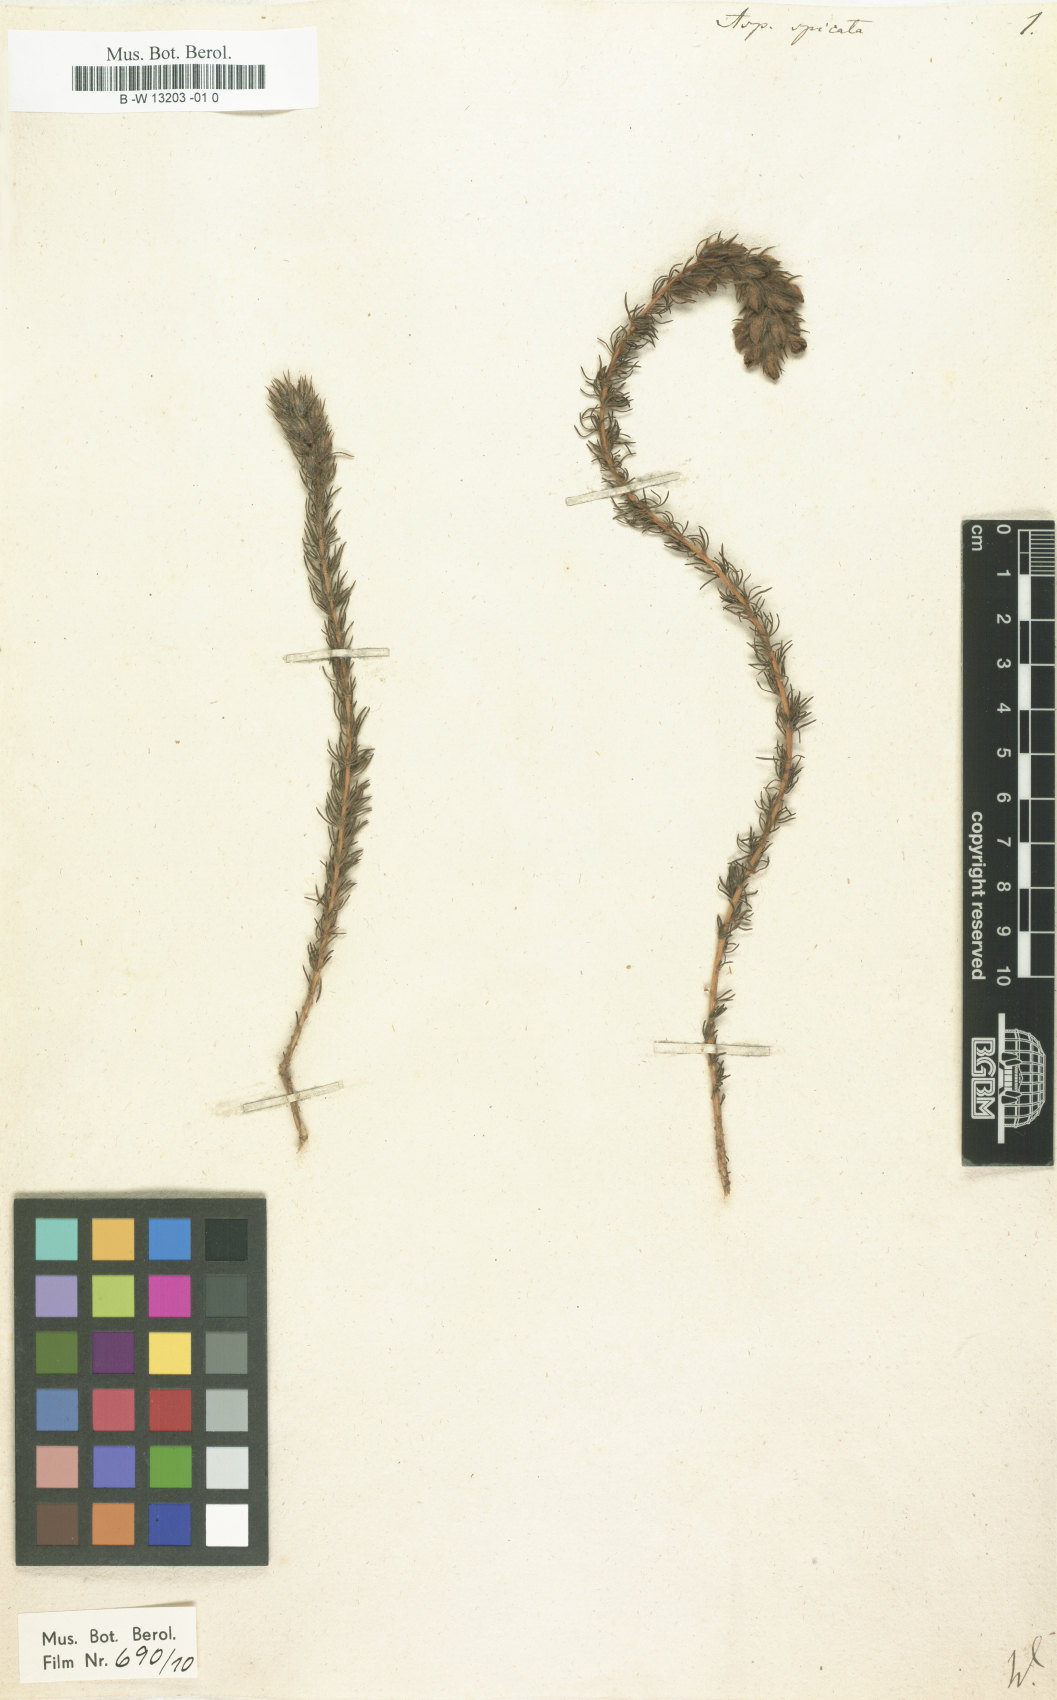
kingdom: Plantae
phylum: Tracheophyta
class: Magnoliopsida
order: Fabales
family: Fabaceae
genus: Aspalathus
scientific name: Aspalathus spicata
